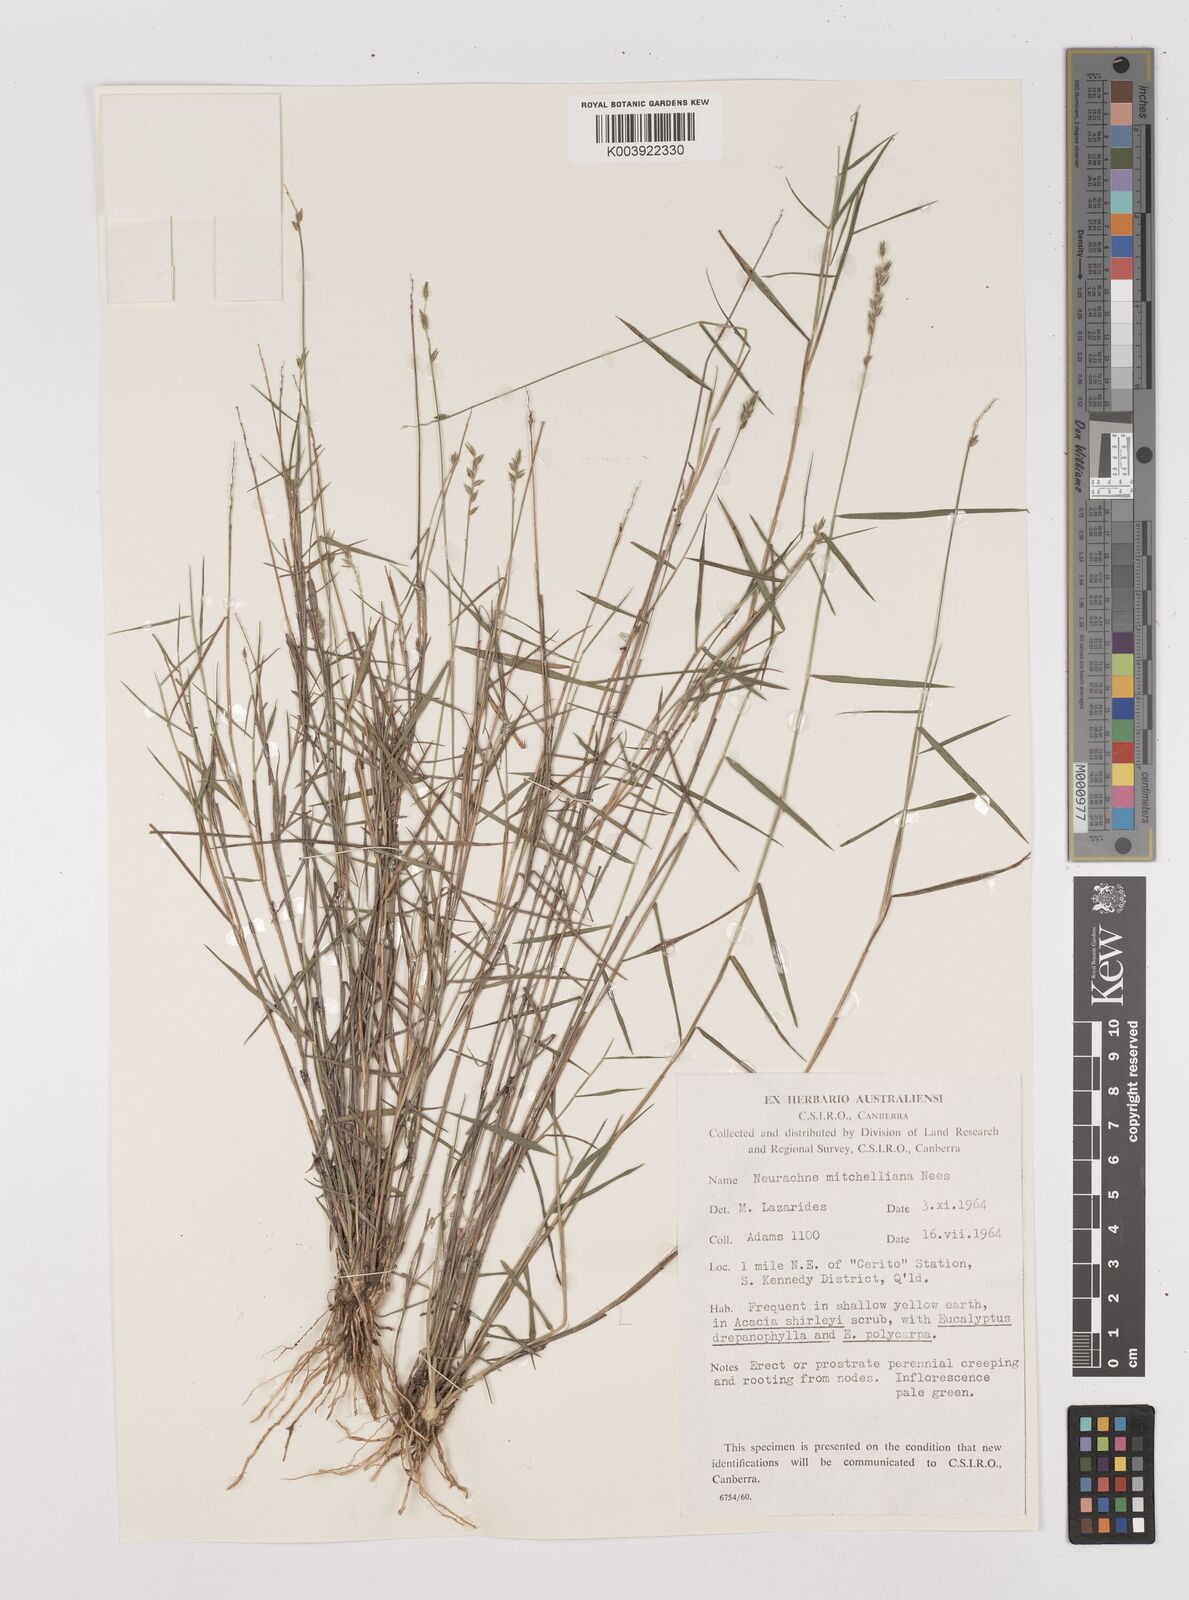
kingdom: Plantae
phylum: Tracheophyta
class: Liliopsida
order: Poales
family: Poaceae
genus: Thyridolepis
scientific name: Thyridolepis mitchelliana
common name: Rock tassel grass
